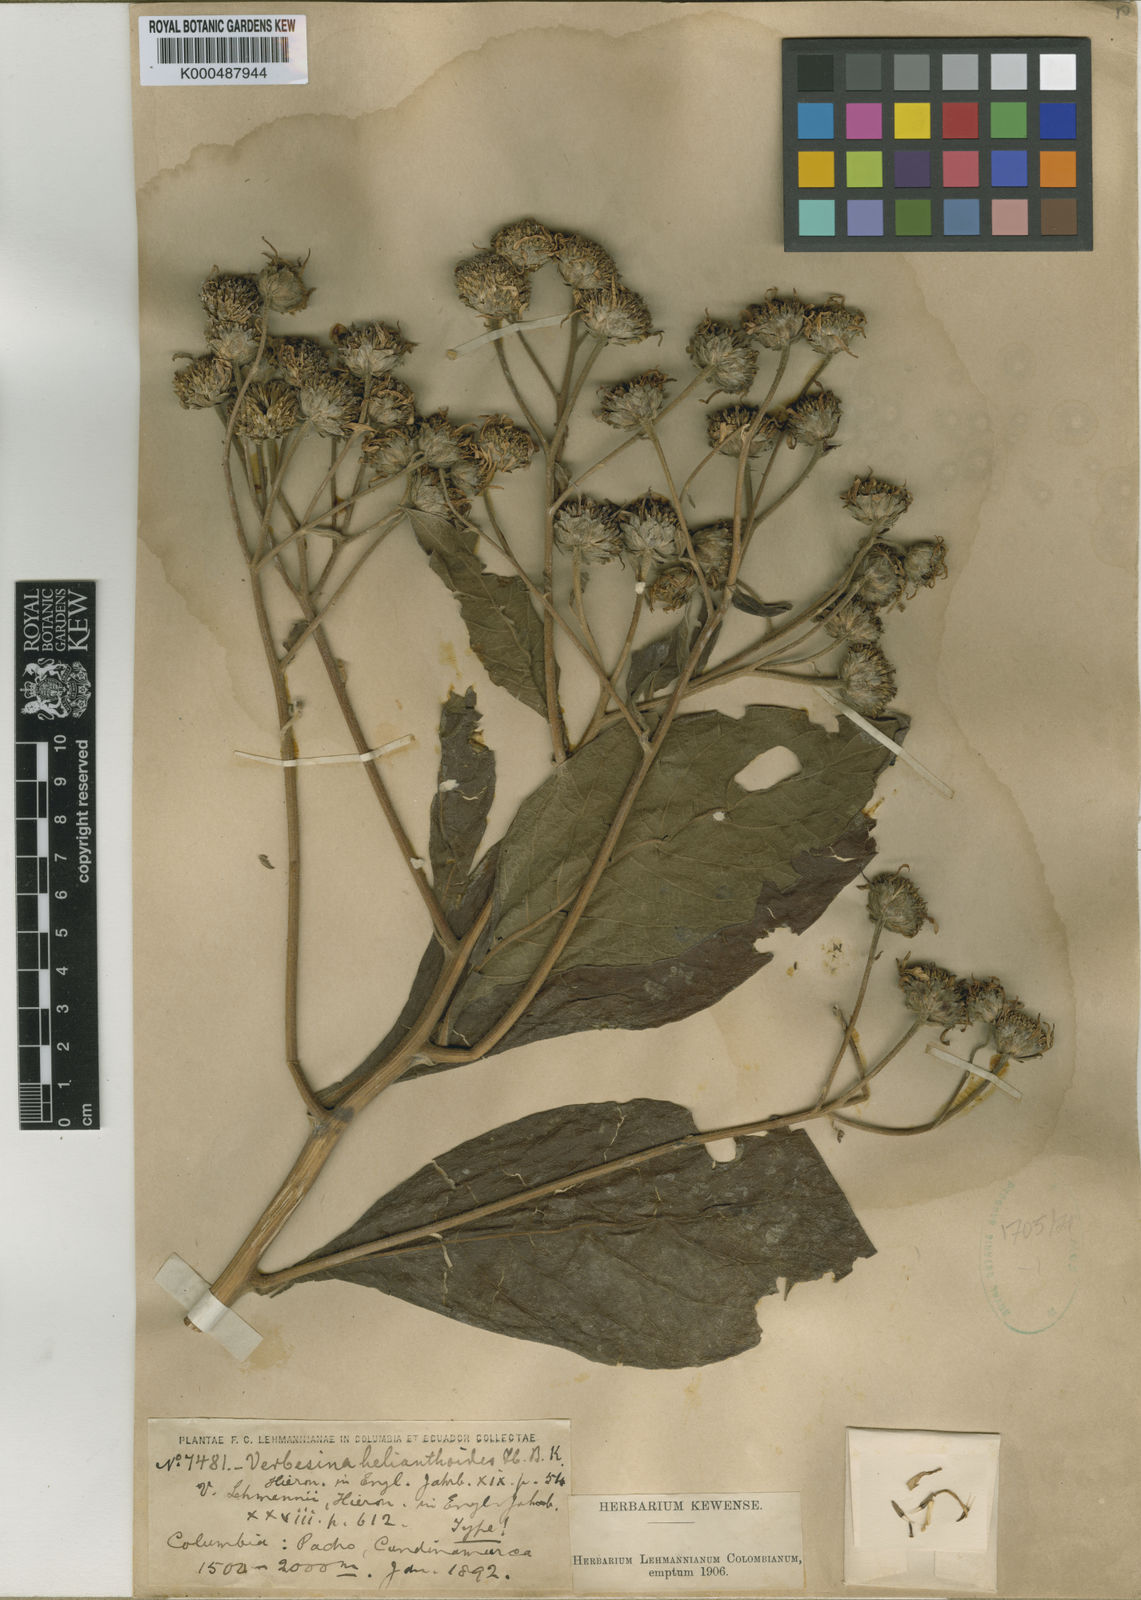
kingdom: Plantae
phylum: Tracheophyta
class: Magnoliopsida
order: Asterales
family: Asteraceae
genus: Verbesina
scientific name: Verbesina humboldtii
